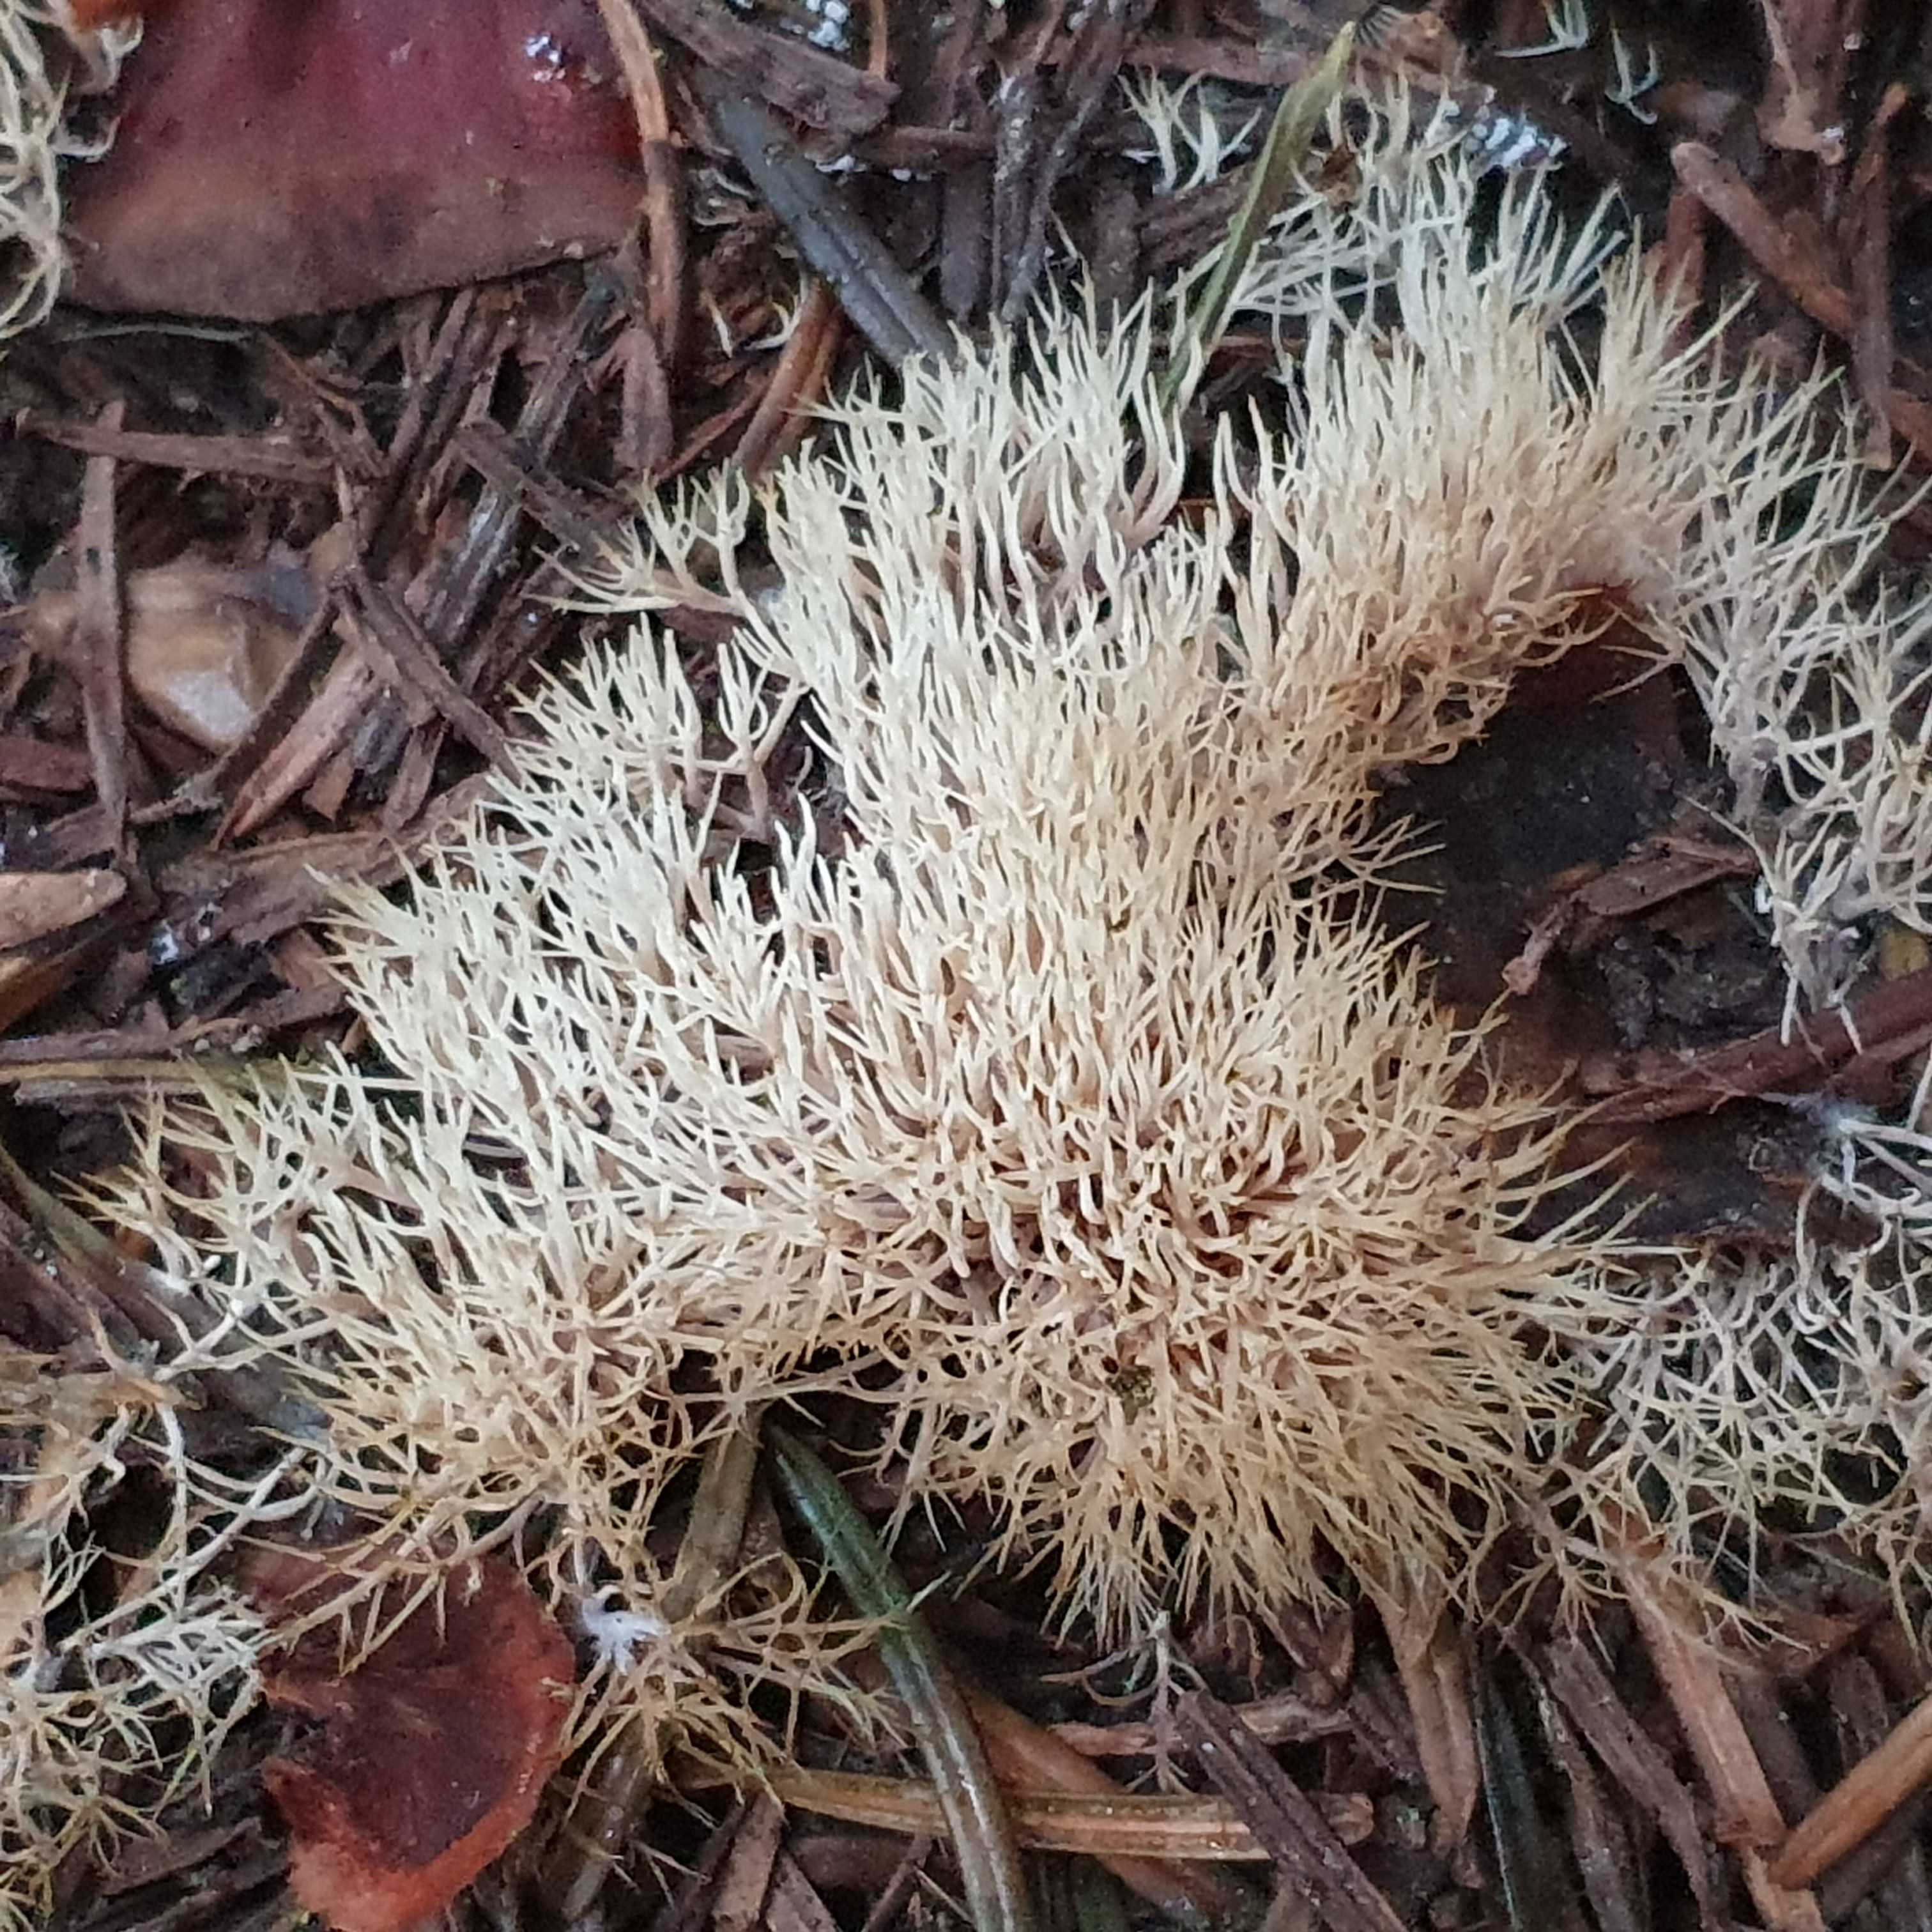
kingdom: Fungi
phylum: Basidiomycota
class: Agaricomycetes
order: Agaricales
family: Pterulaceae
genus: Pterula
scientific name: Pterula multifida
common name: busket fjerkølle
